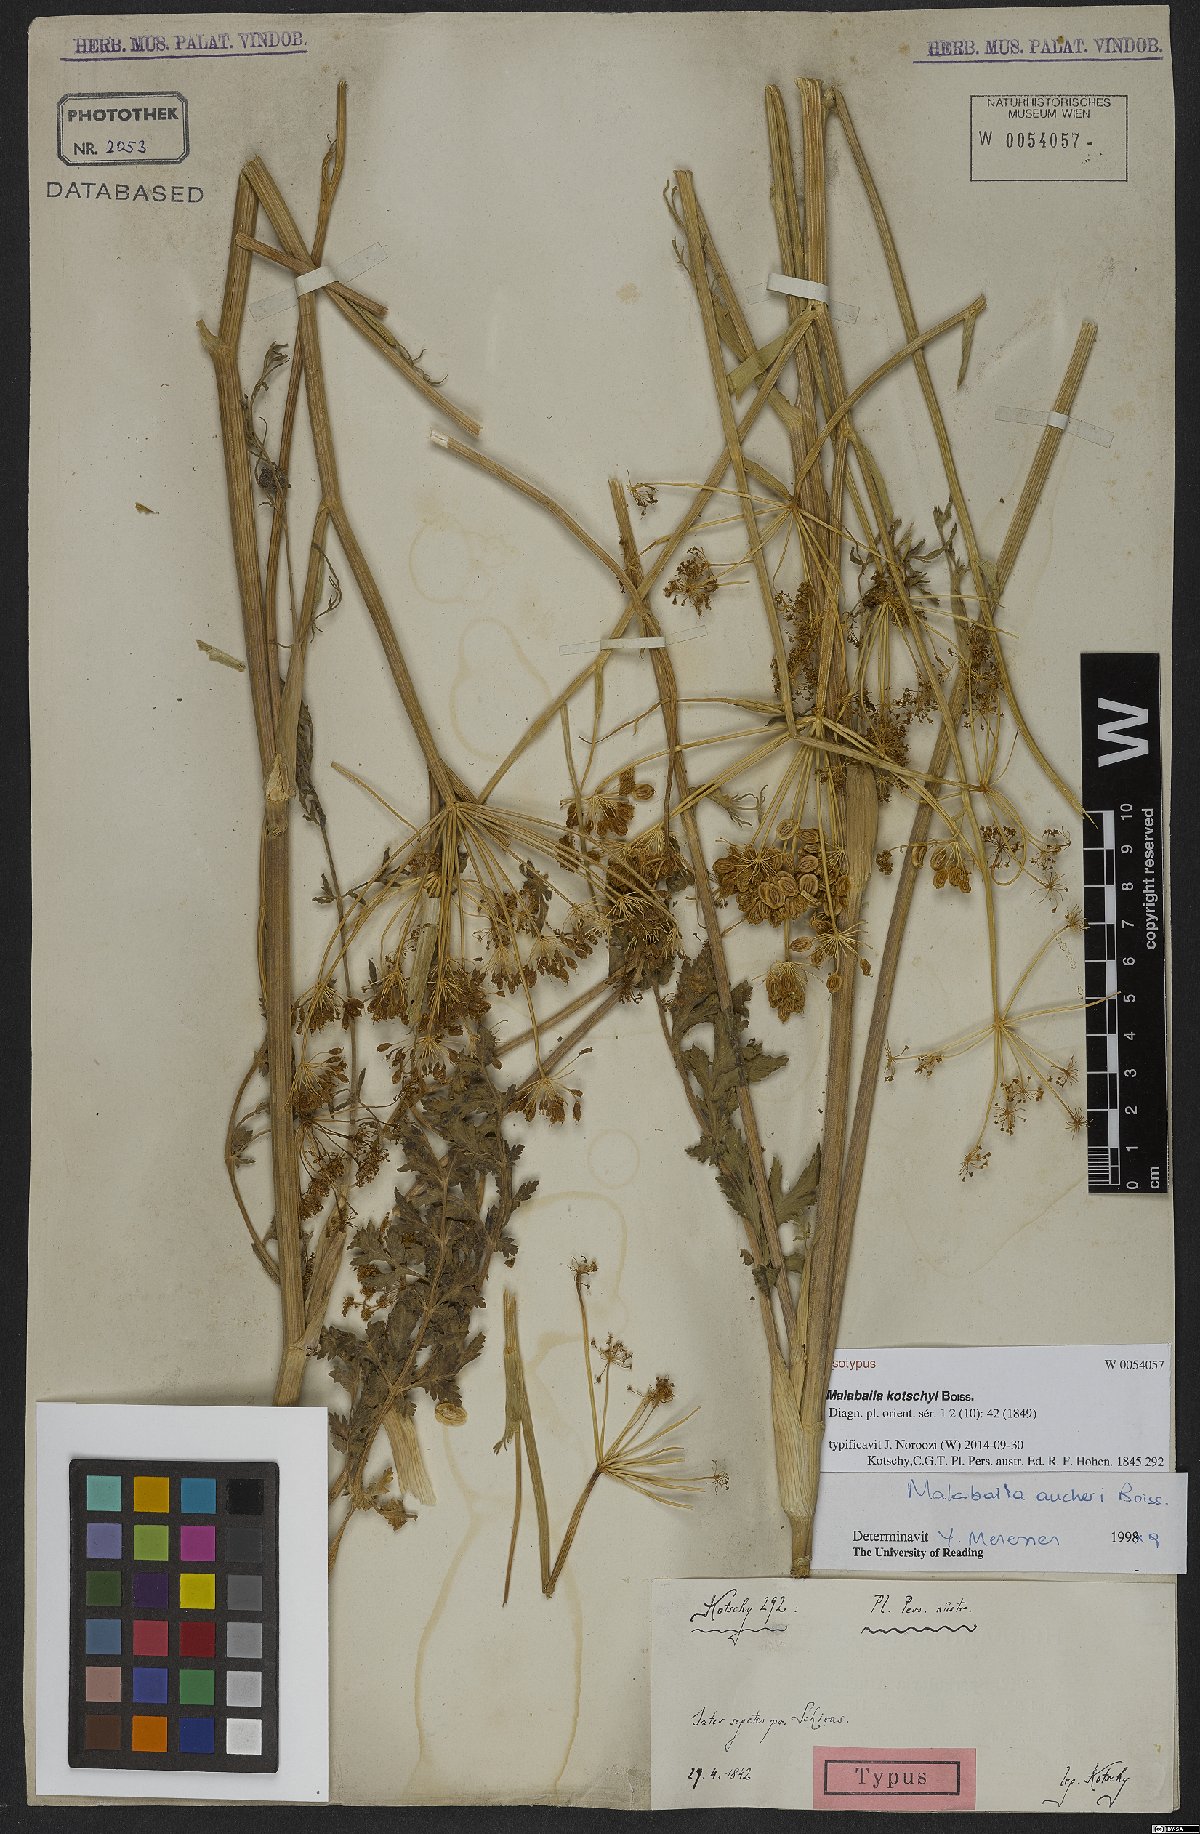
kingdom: Plantae
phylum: Tracheophyta
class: Magnoliopsida
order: Apiales
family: Apiaceae
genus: Leiotulus
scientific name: Leiotulus kotschyi
